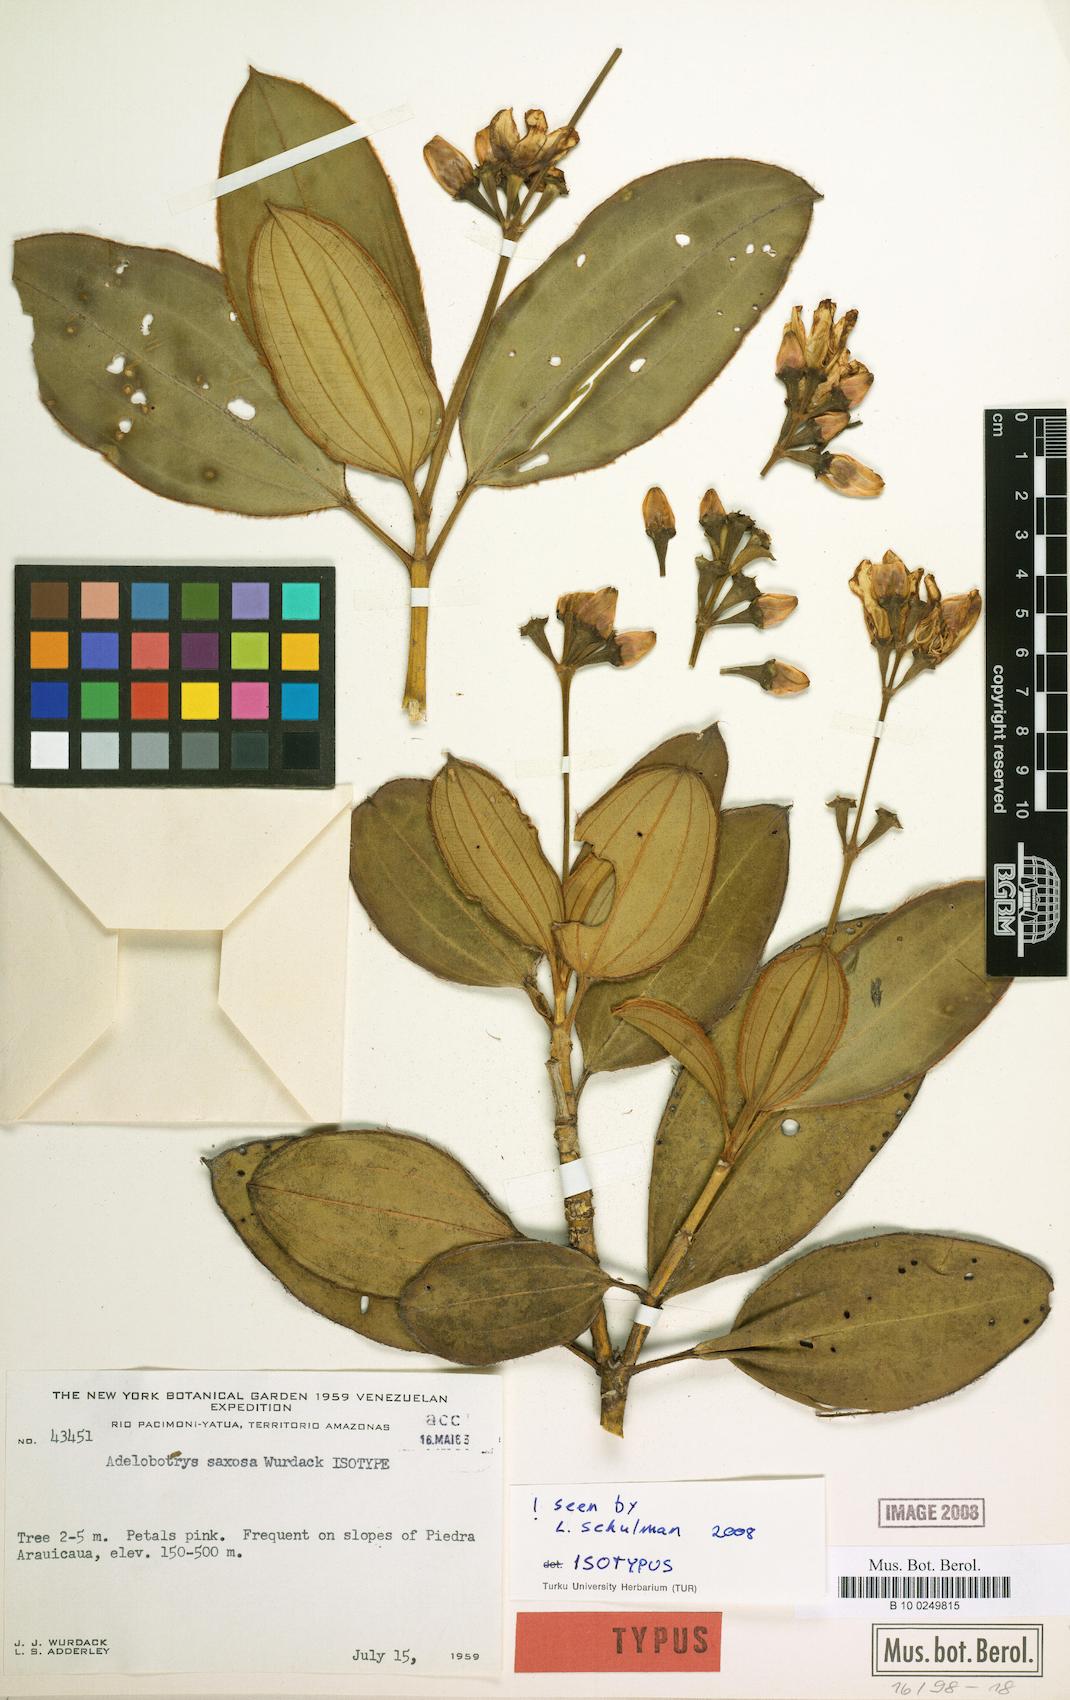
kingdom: Plantae
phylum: Tracheophyta
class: Magnoliopsida
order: Myrtales
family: Melastomataceae
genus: Adelobotrys
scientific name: Adelobotrys saxosus
